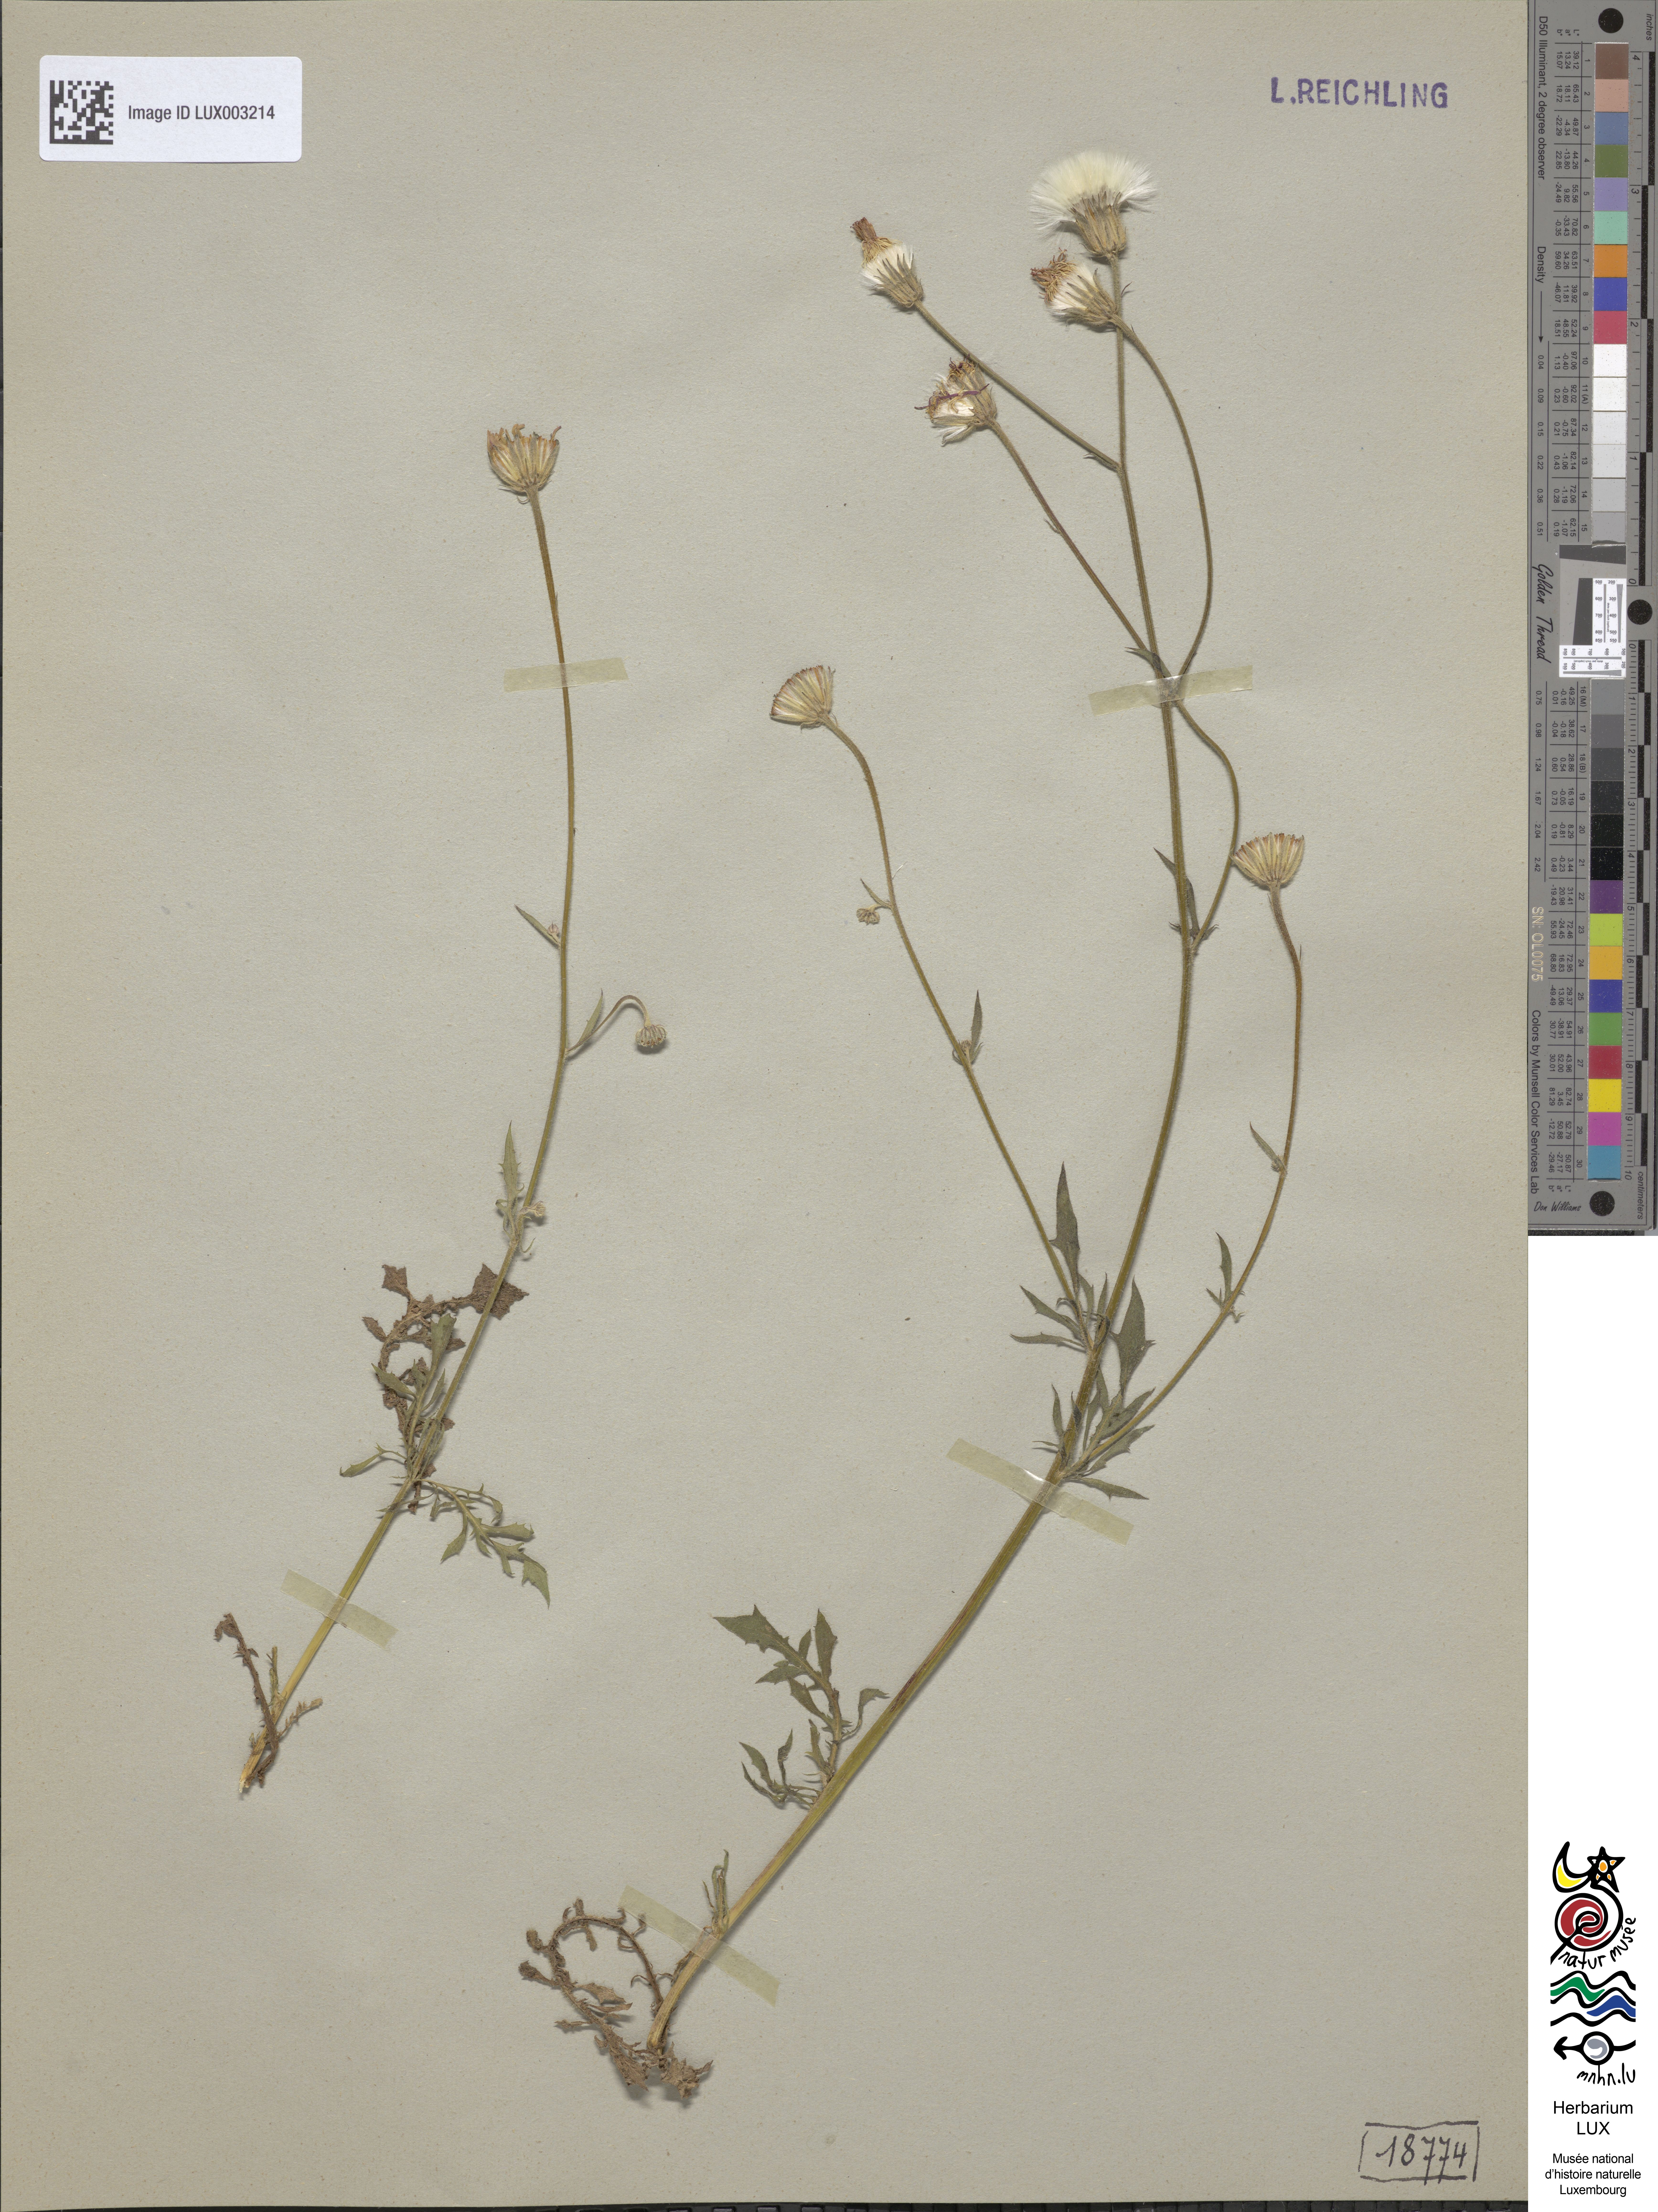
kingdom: Plantae
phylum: Tracheophyta
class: Magnoliopsida
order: Asterales
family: Asteraceae
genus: Crepis
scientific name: Crepis foetida
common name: Stinking hawk's-beard
